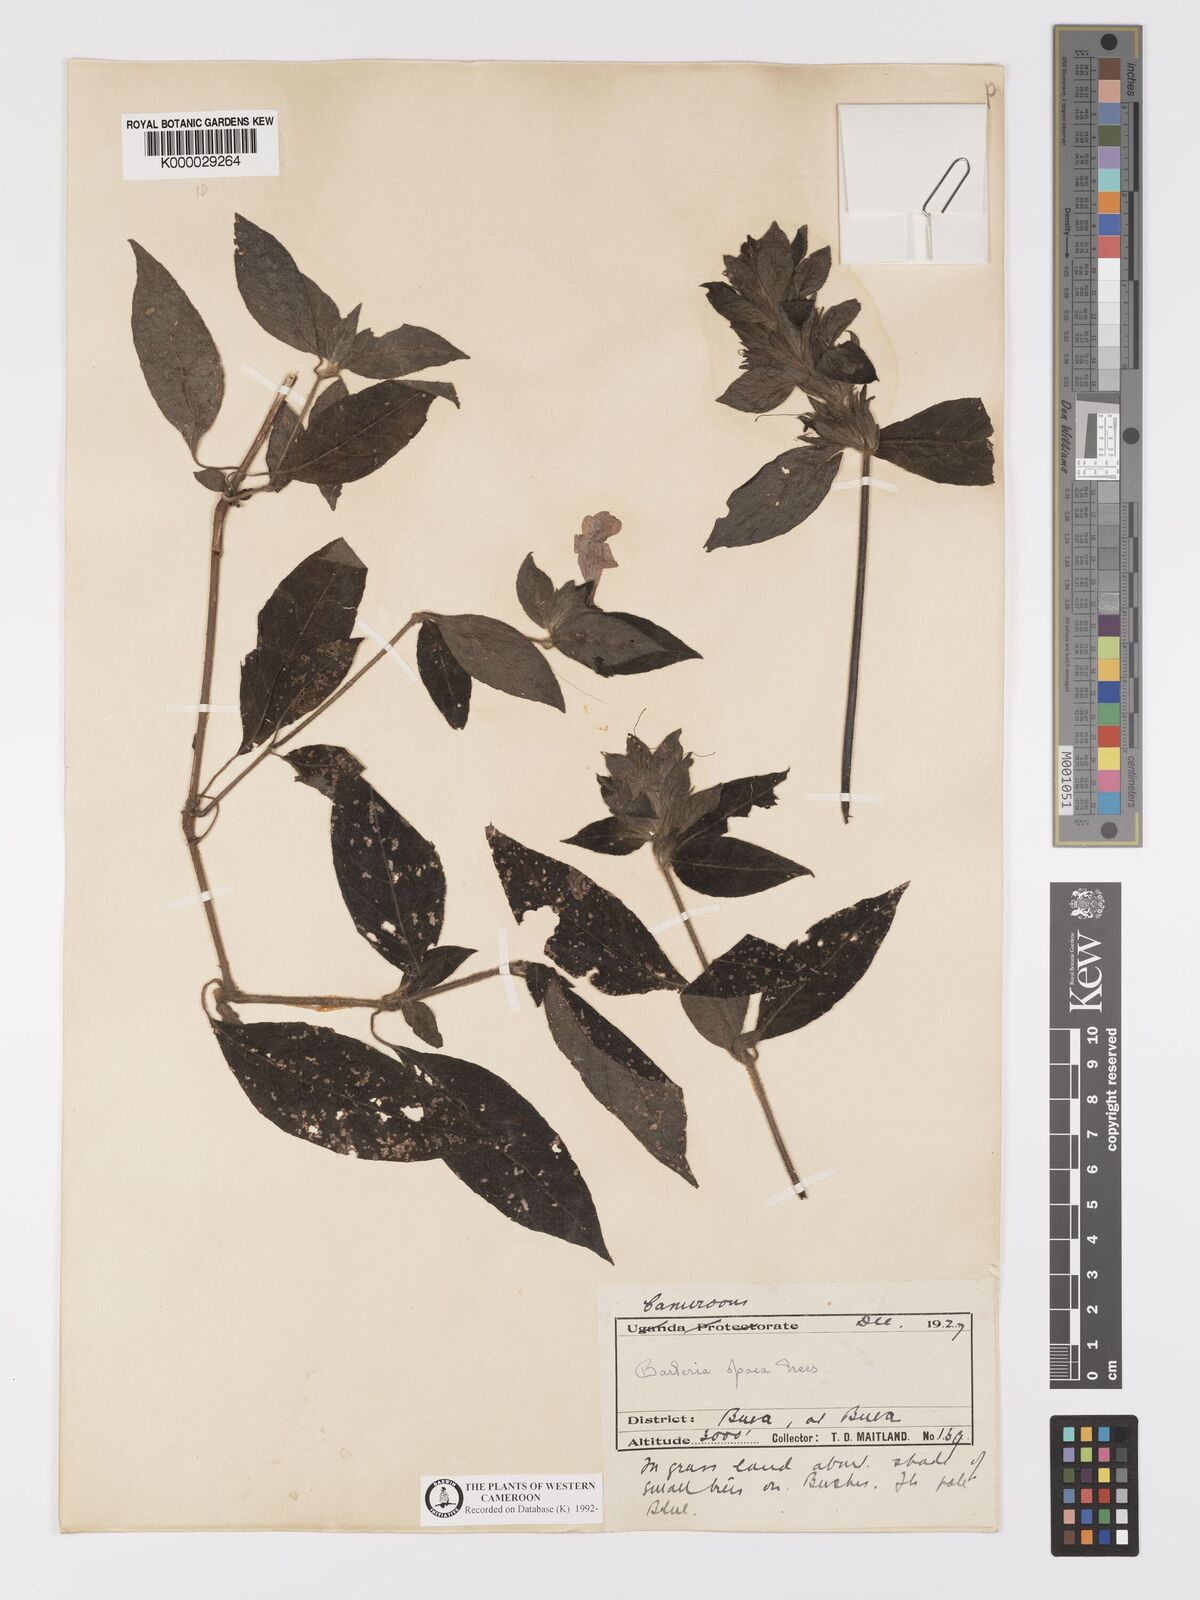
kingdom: Plantae
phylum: Tracheophyta
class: Magnoliopsida
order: Lamiales
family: Acanthaceae
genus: Barleria
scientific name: Barleria opaca
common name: Kwahu
